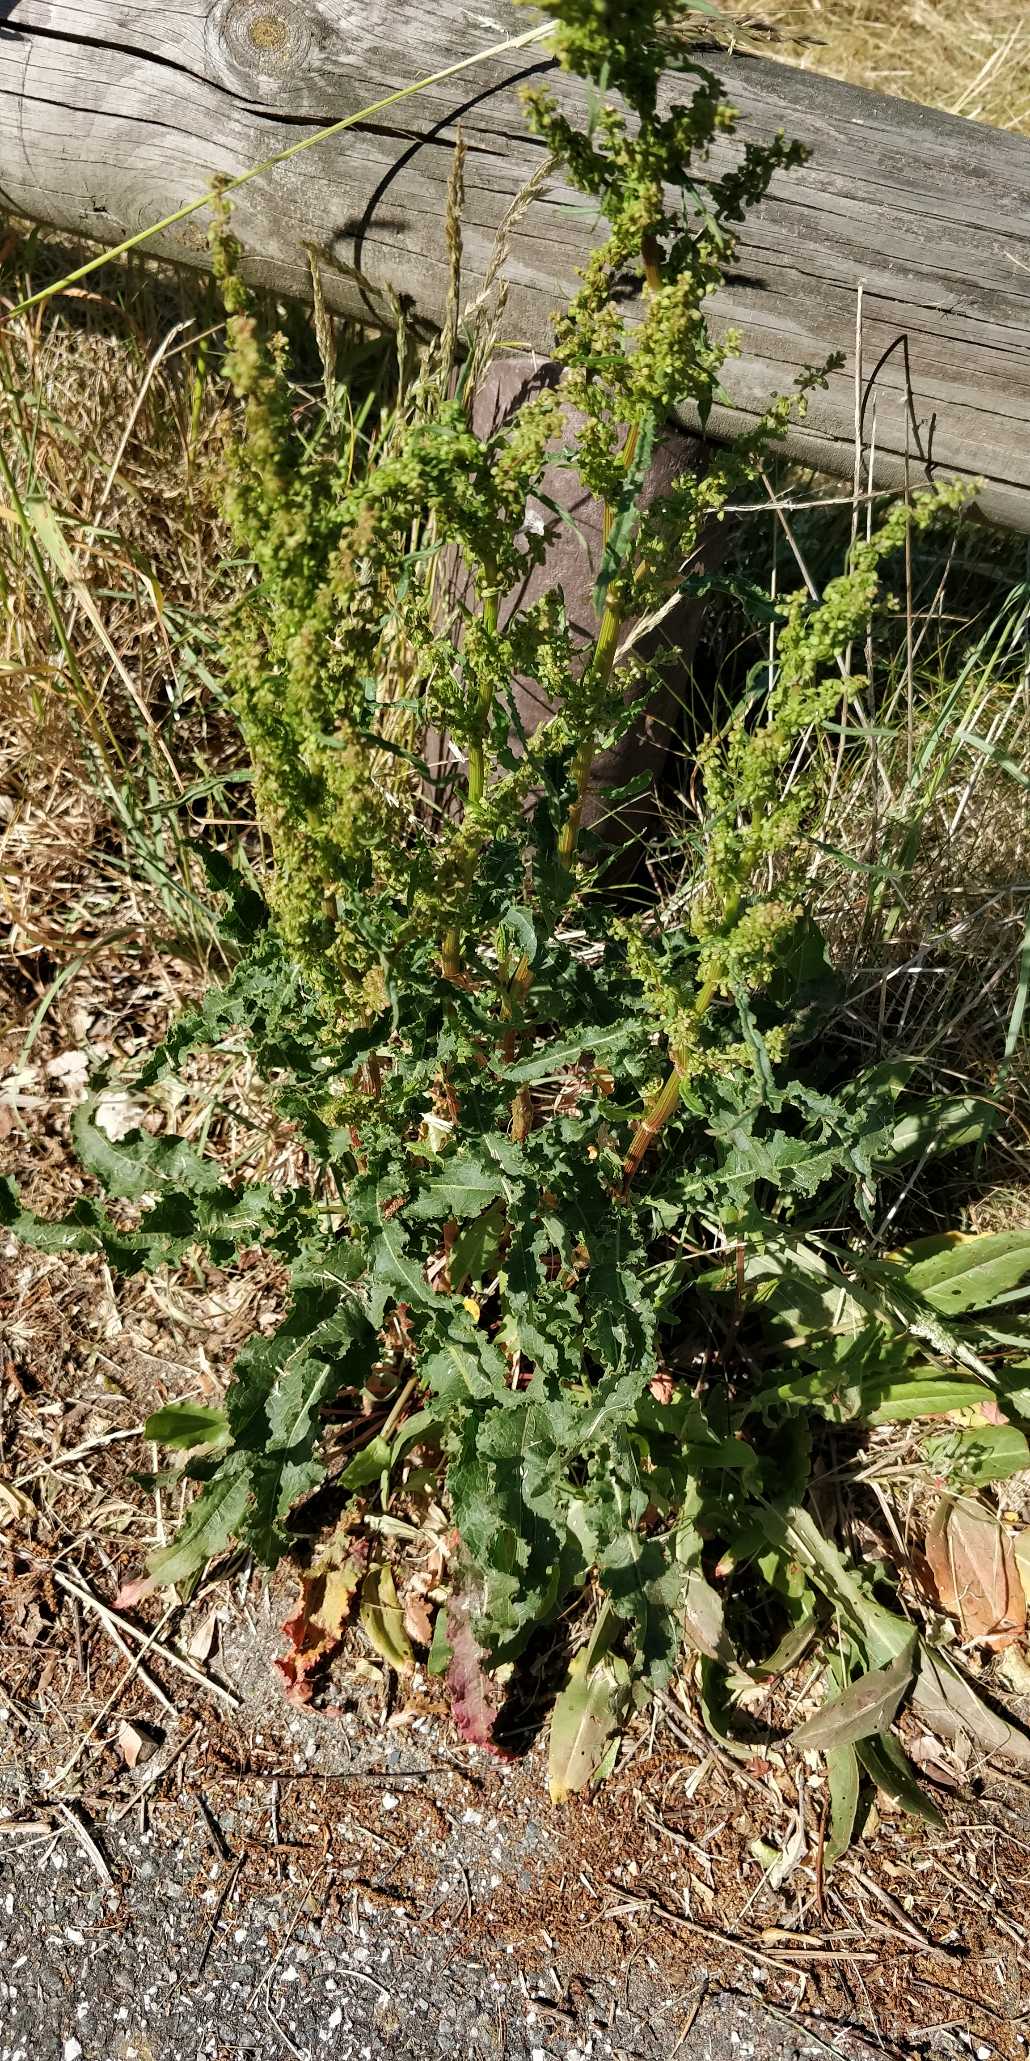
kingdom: Plantae
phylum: Tracheophyta
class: Magnoliopsida
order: Caryophyllales
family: Polygonaceae
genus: Rumex
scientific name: Rumex crispus
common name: Kruset skræppe
